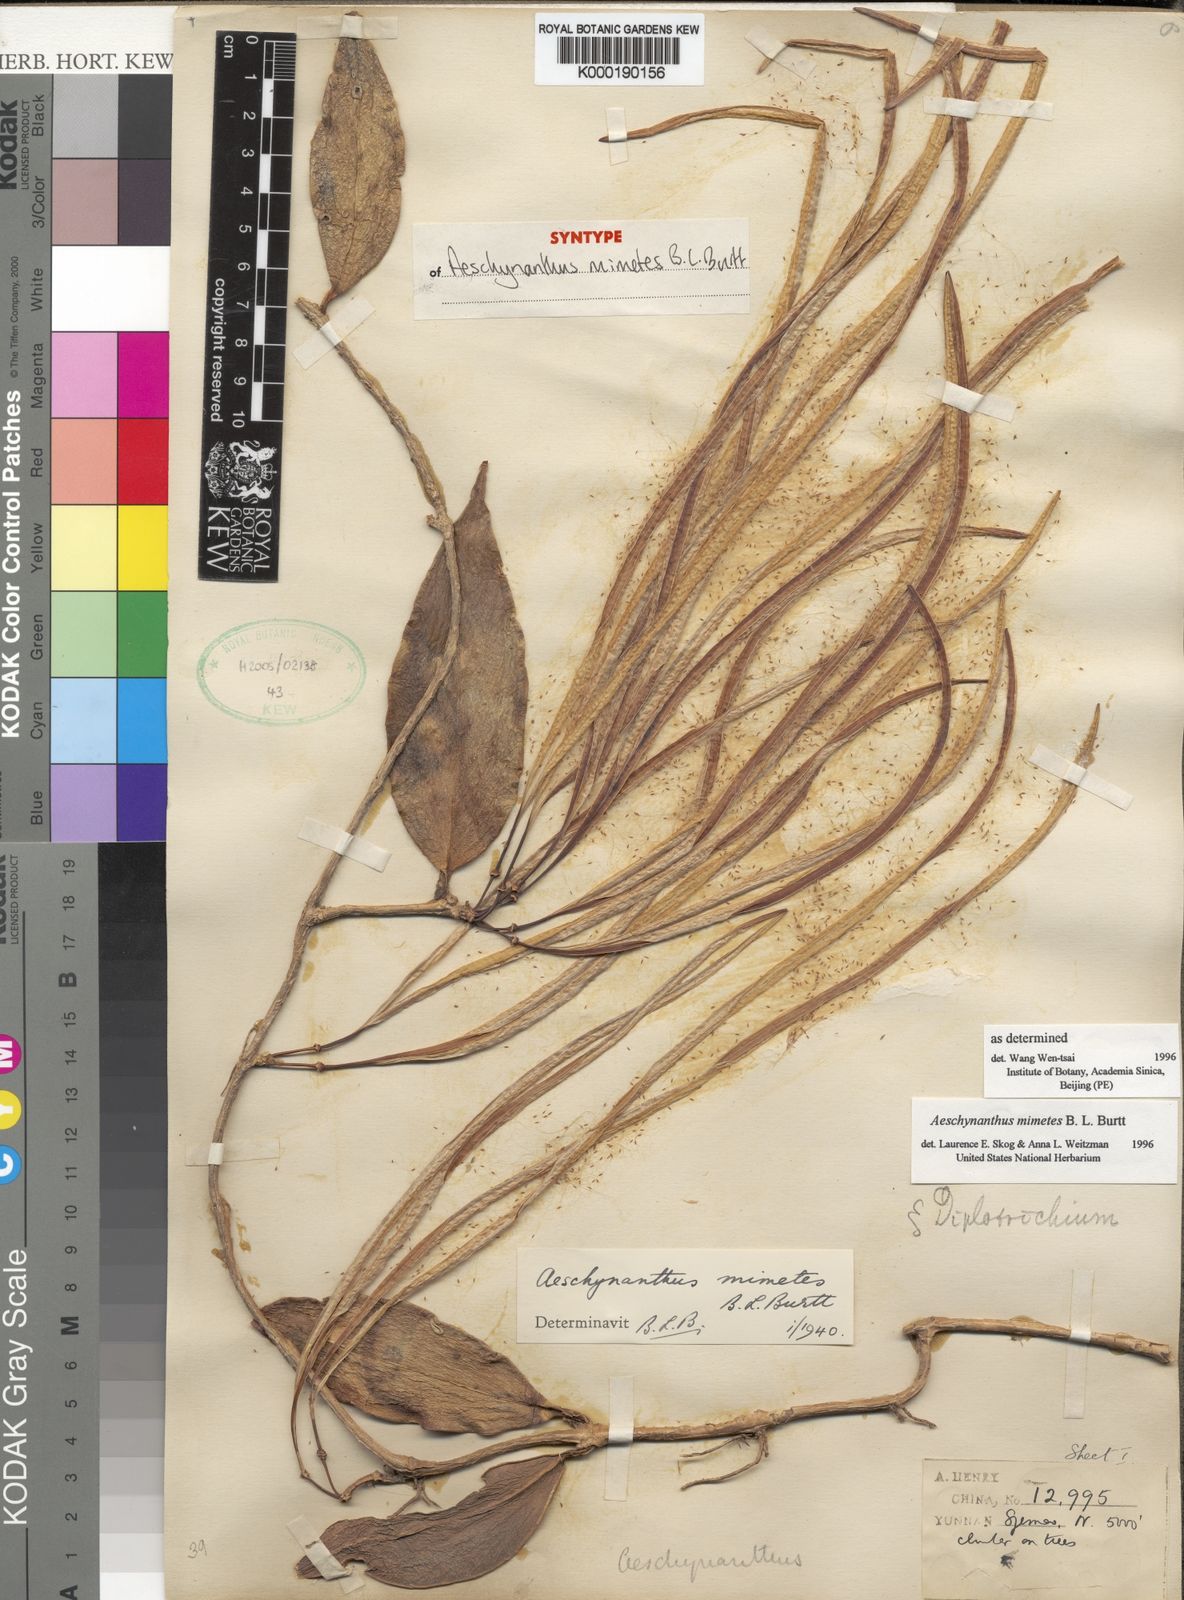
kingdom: Plantae
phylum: Tracheophyta
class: Magnoliopsida
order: Lamiales
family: Gesneriaceae
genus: Aeschynanthus
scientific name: Aeschynanthus parasiticus
